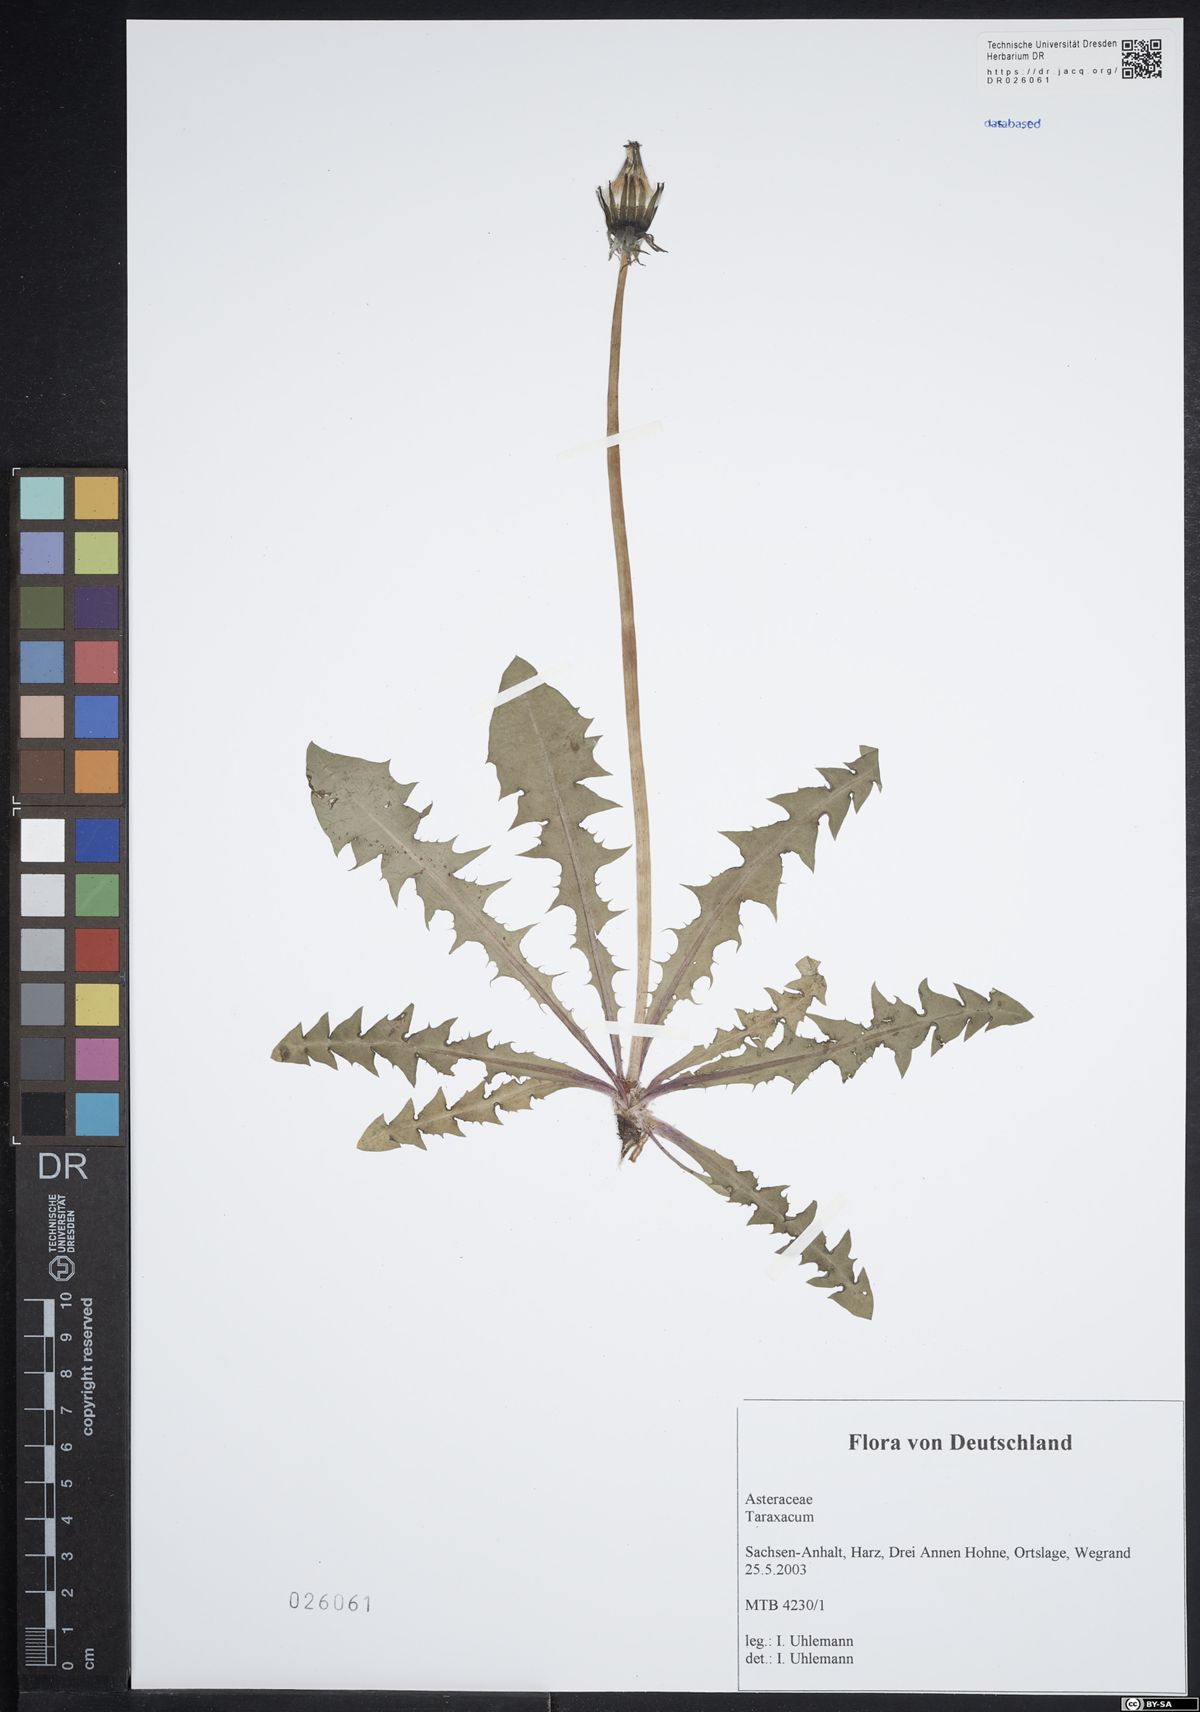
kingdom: Plantae
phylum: Tracheophyta
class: Magnoliopsida
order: Asterales
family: Asteraceae
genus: Taraxacum
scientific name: Taraxacum hempelianum
